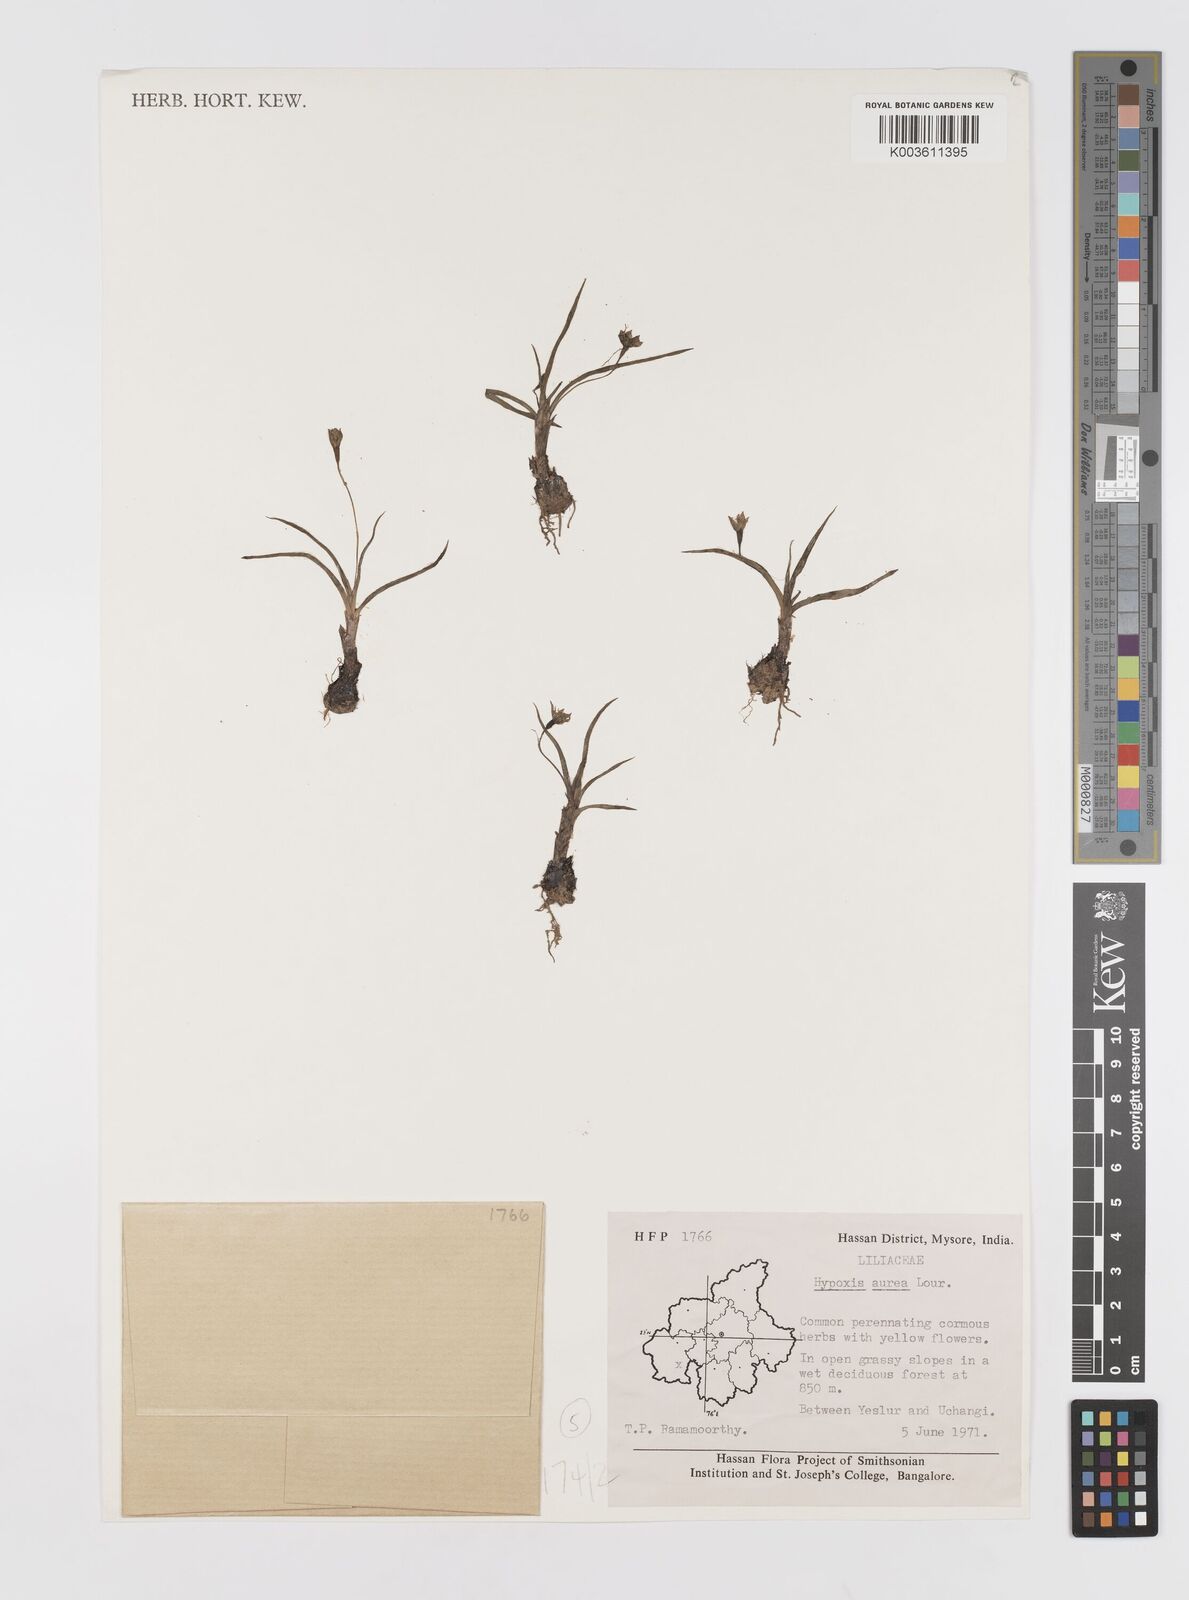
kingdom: Plantae
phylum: Tracheophyta
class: Liliopsida
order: Asparagales
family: Hypoxidaceae
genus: Hypoxis
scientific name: Hypoxis aurea
